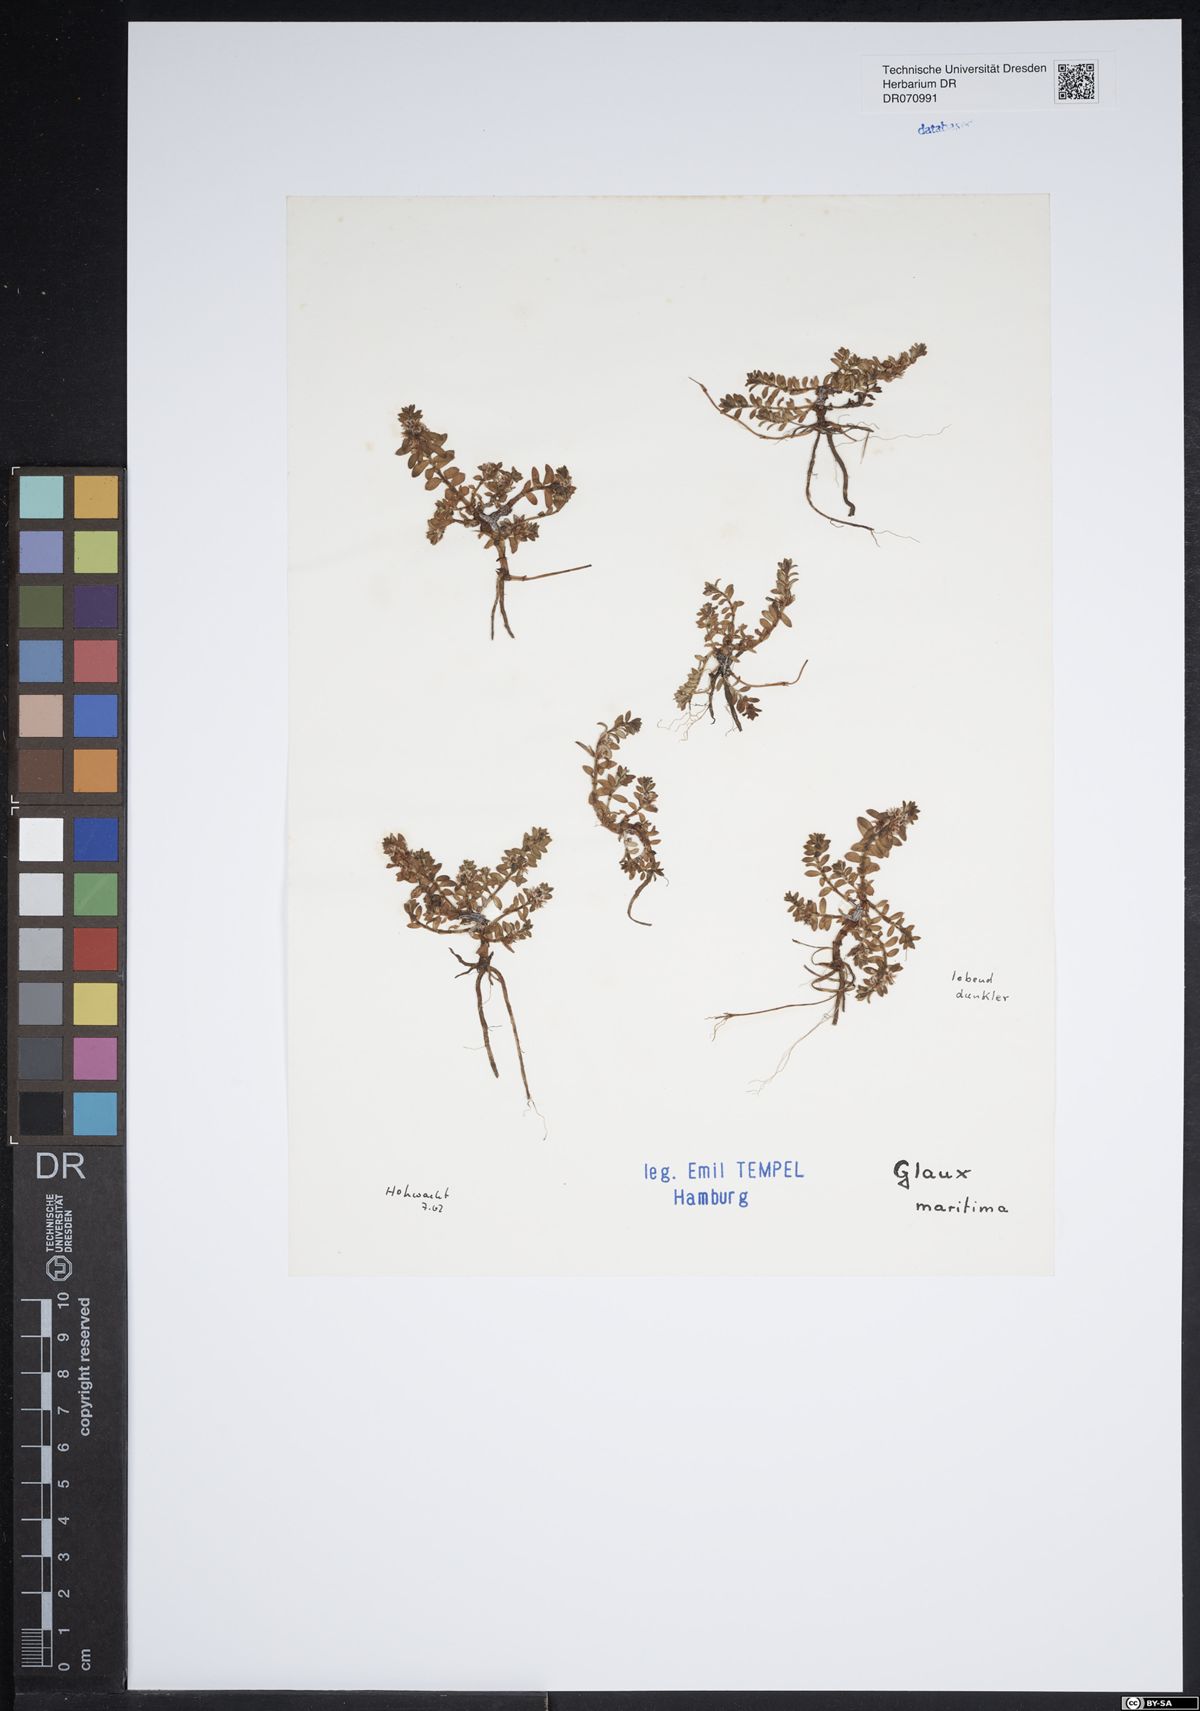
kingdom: Plantae
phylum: Tracheophyta
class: Magnoliopsida
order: Ericales
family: Primulaceae
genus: Lysimachia
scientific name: Lysimachia maritima
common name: Sea milkwort
